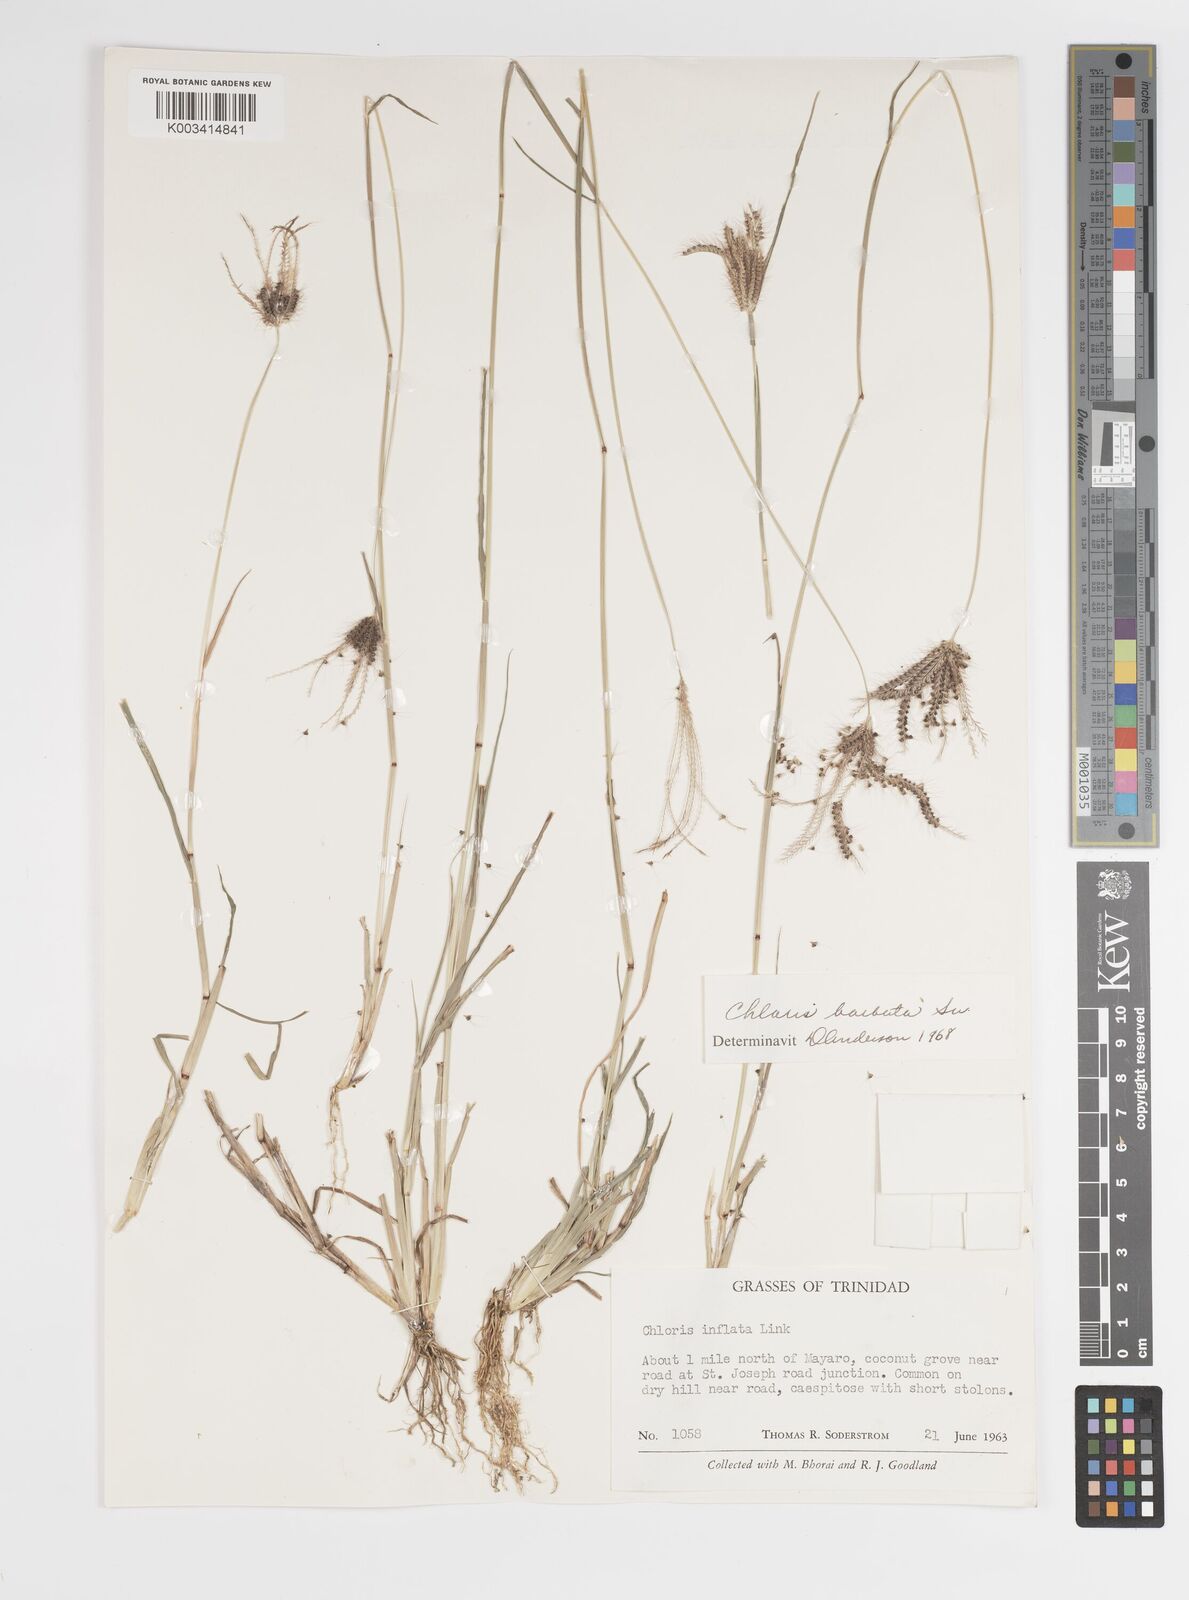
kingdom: Plantae
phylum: Tracheophyta
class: Liliopsida
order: Poales
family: Poaceae
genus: Chloris
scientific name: Chloris barbata
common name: Swollen fingergrass
